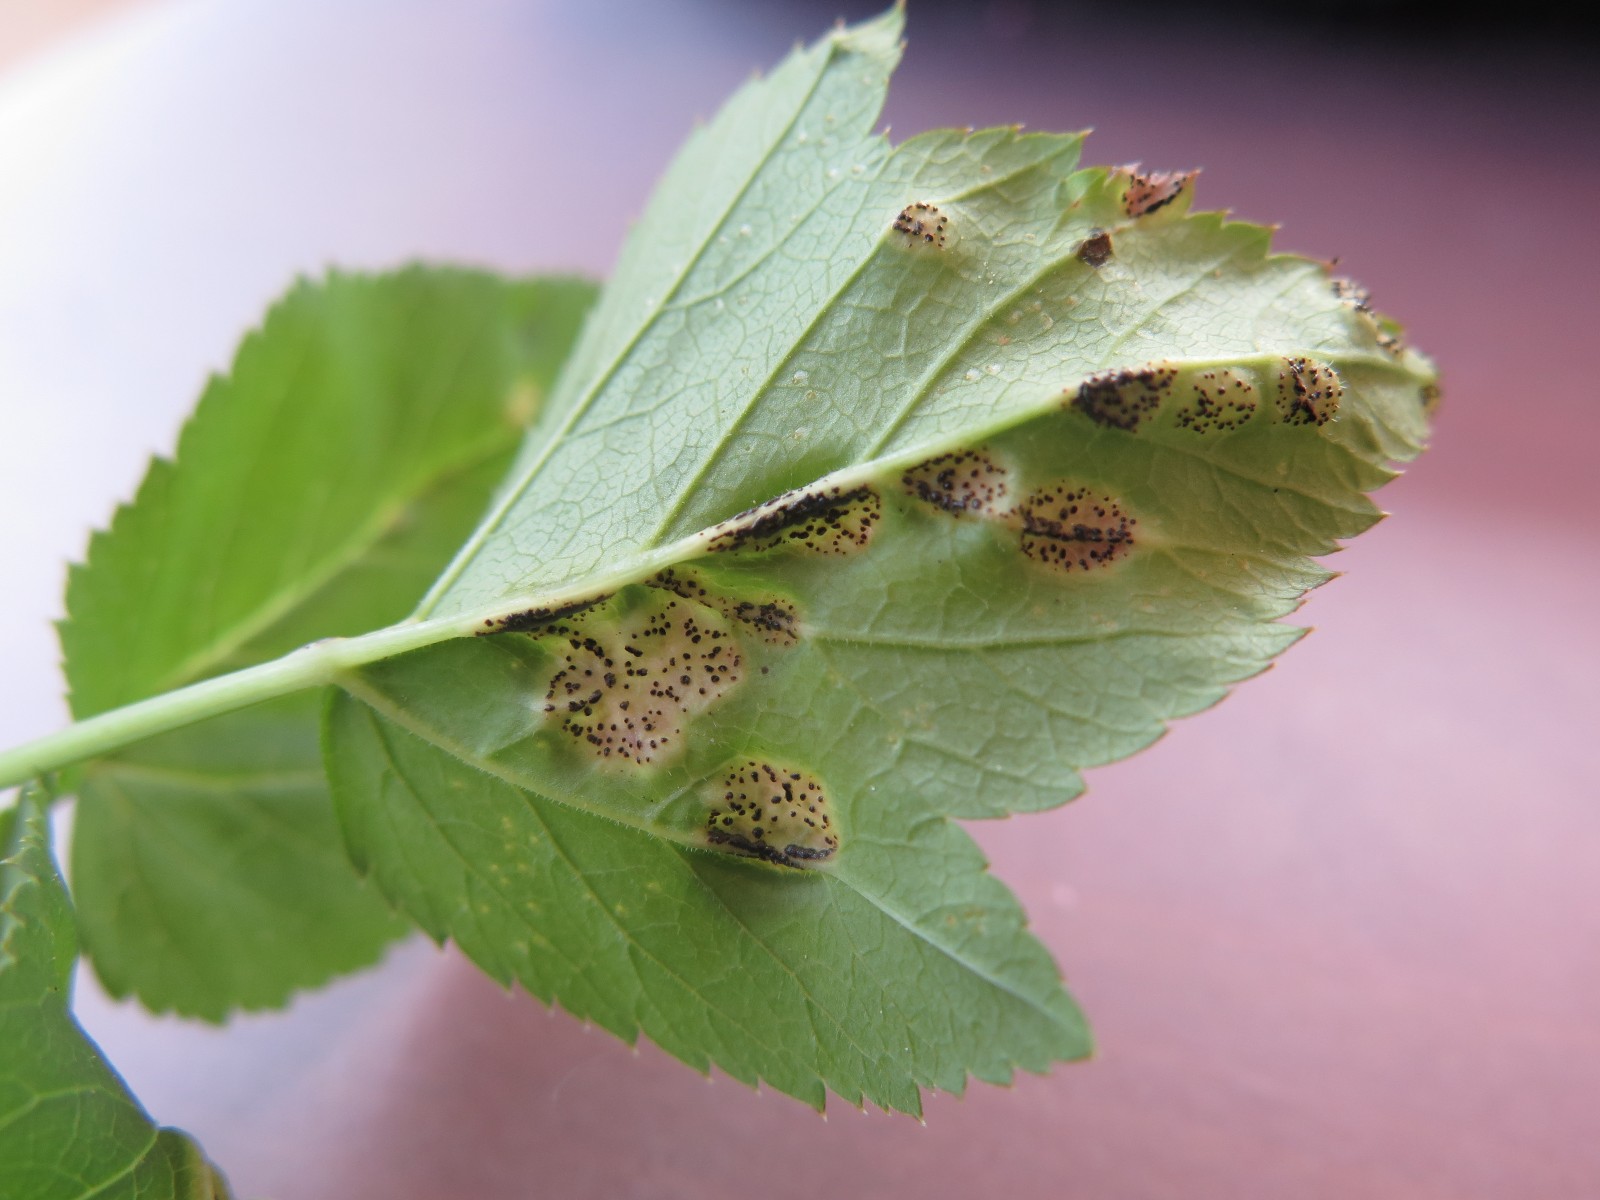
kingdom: Fungi
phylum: Basidiomycota
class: Pucciniomycetes
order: Pucciniales
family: Pucciniaceae
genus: Puccinia
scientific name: Puccinia
